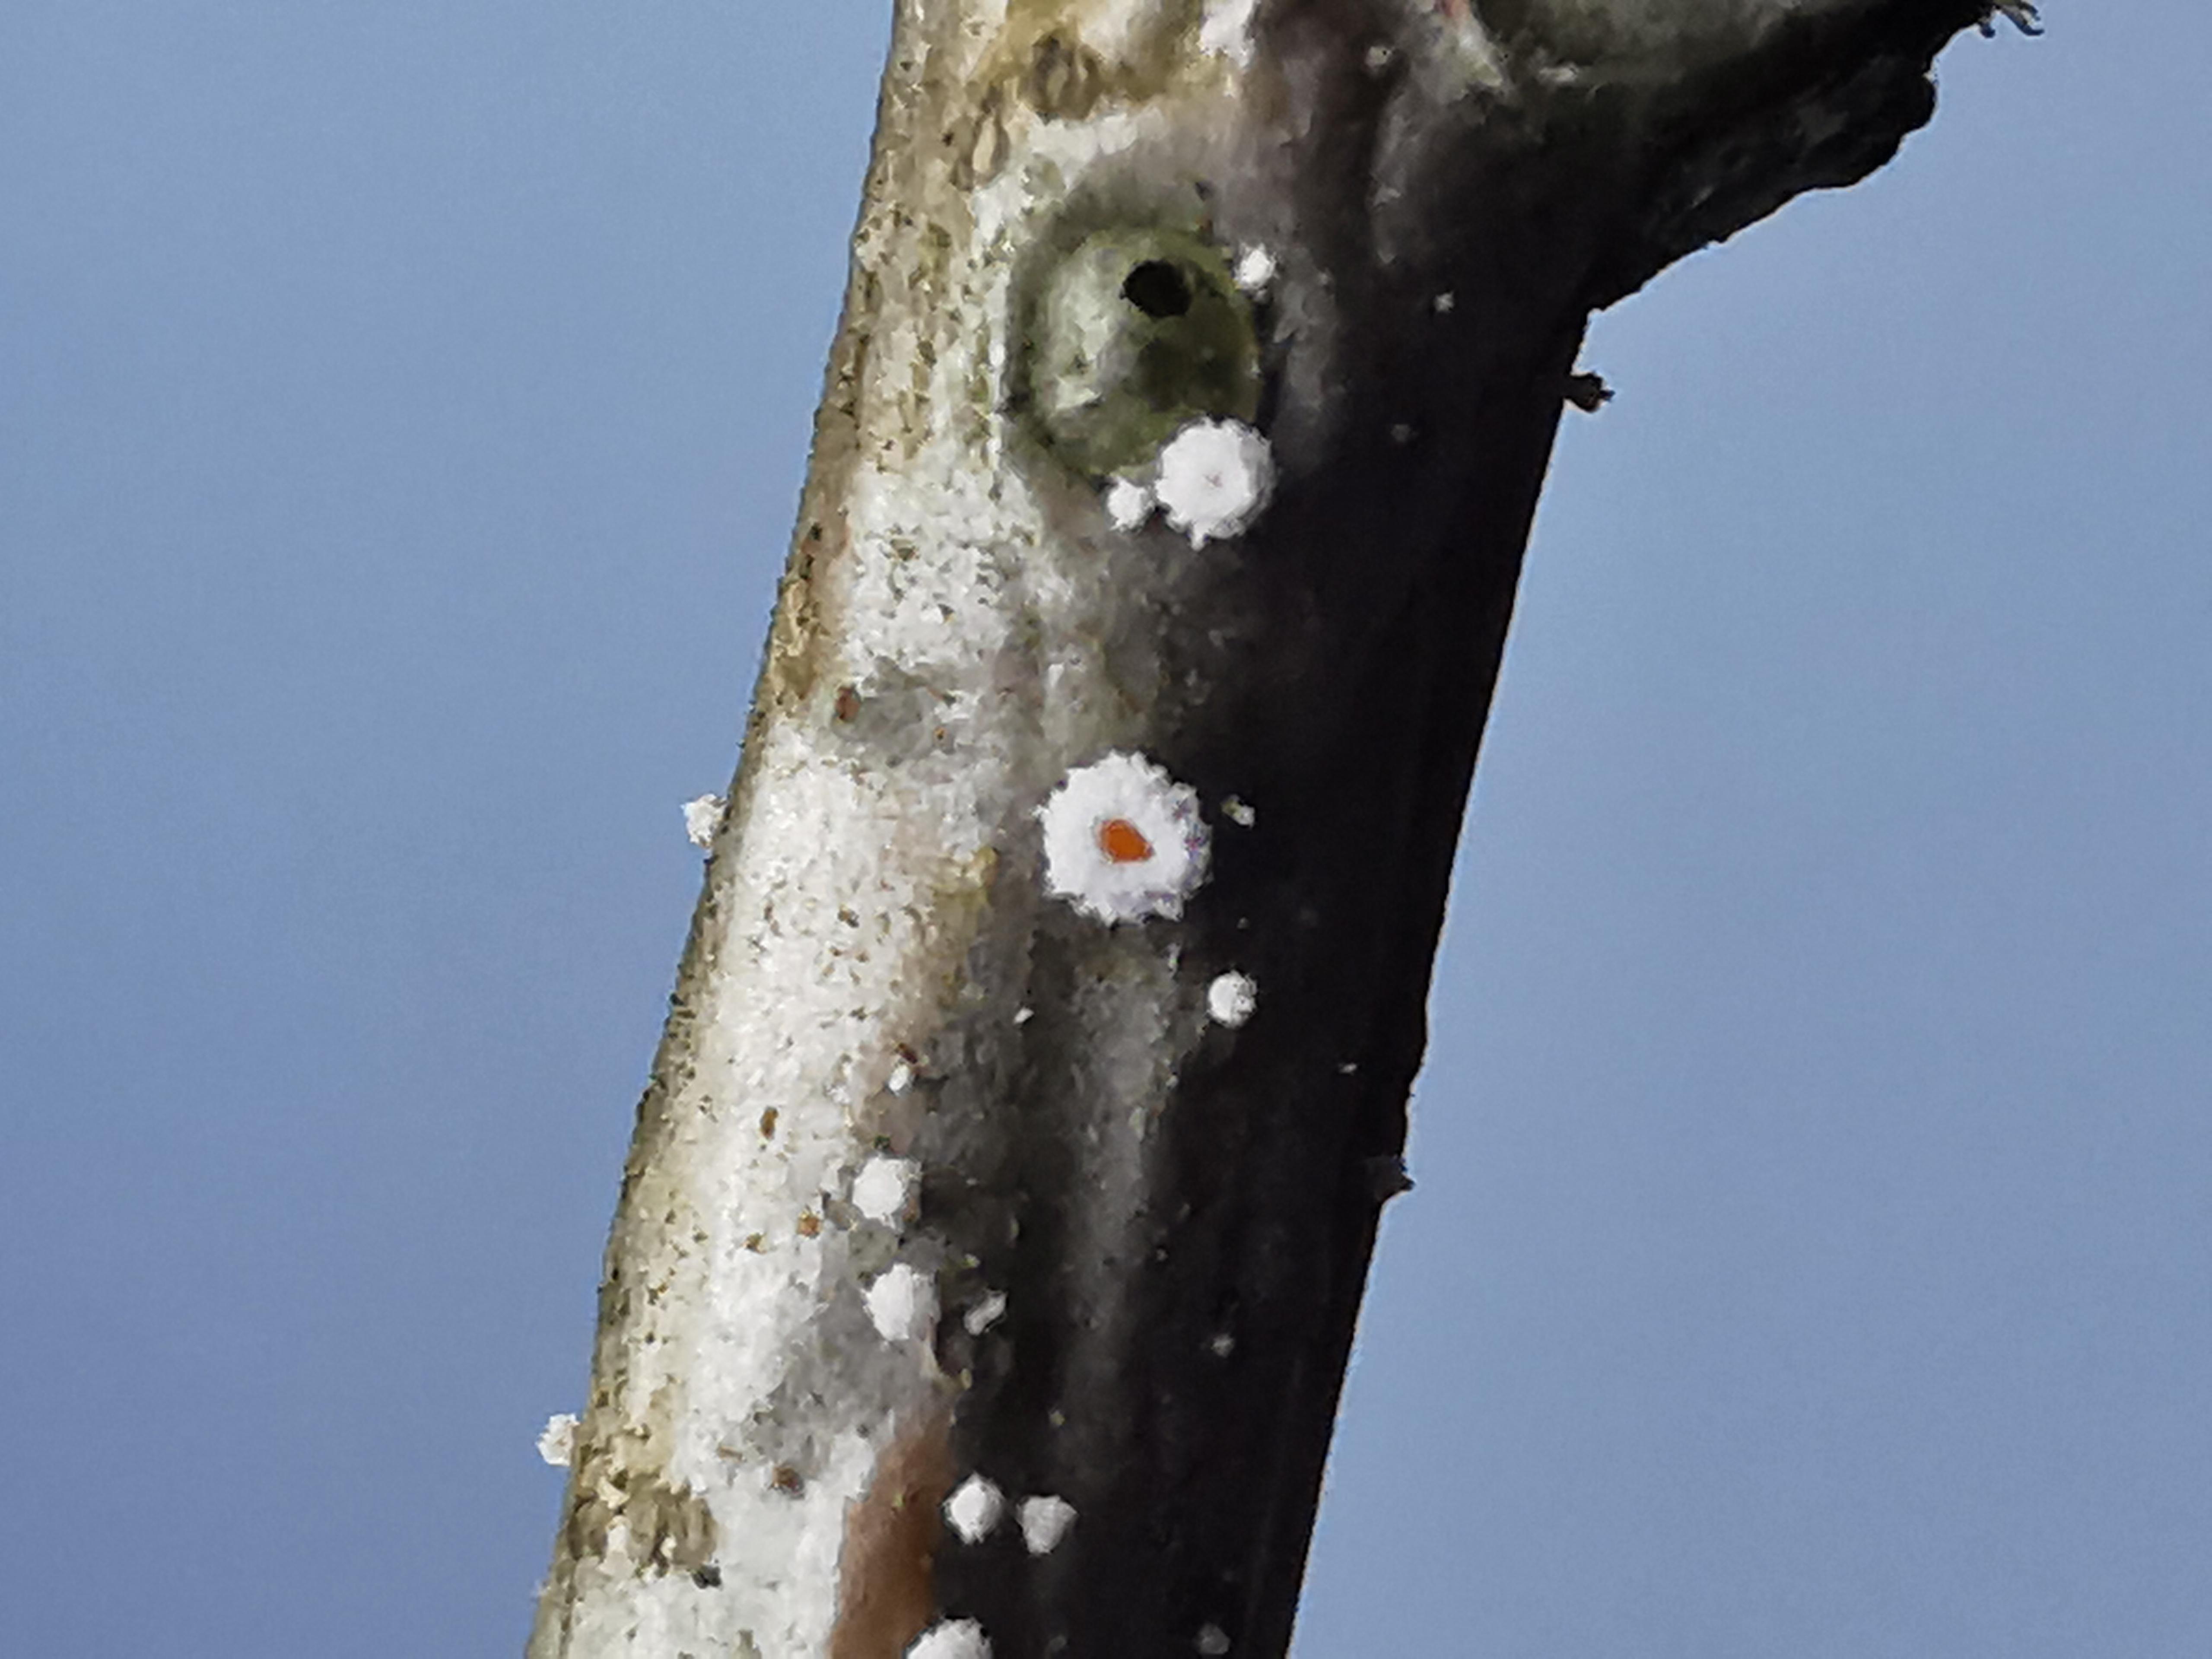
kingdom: Fungi
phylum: Ascomycota
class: Leotiomycetes
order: Helotiales
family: Lachnaceae
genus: Capitotricha
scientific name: Capitotricha bicolor
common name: prægtig frynseskive
